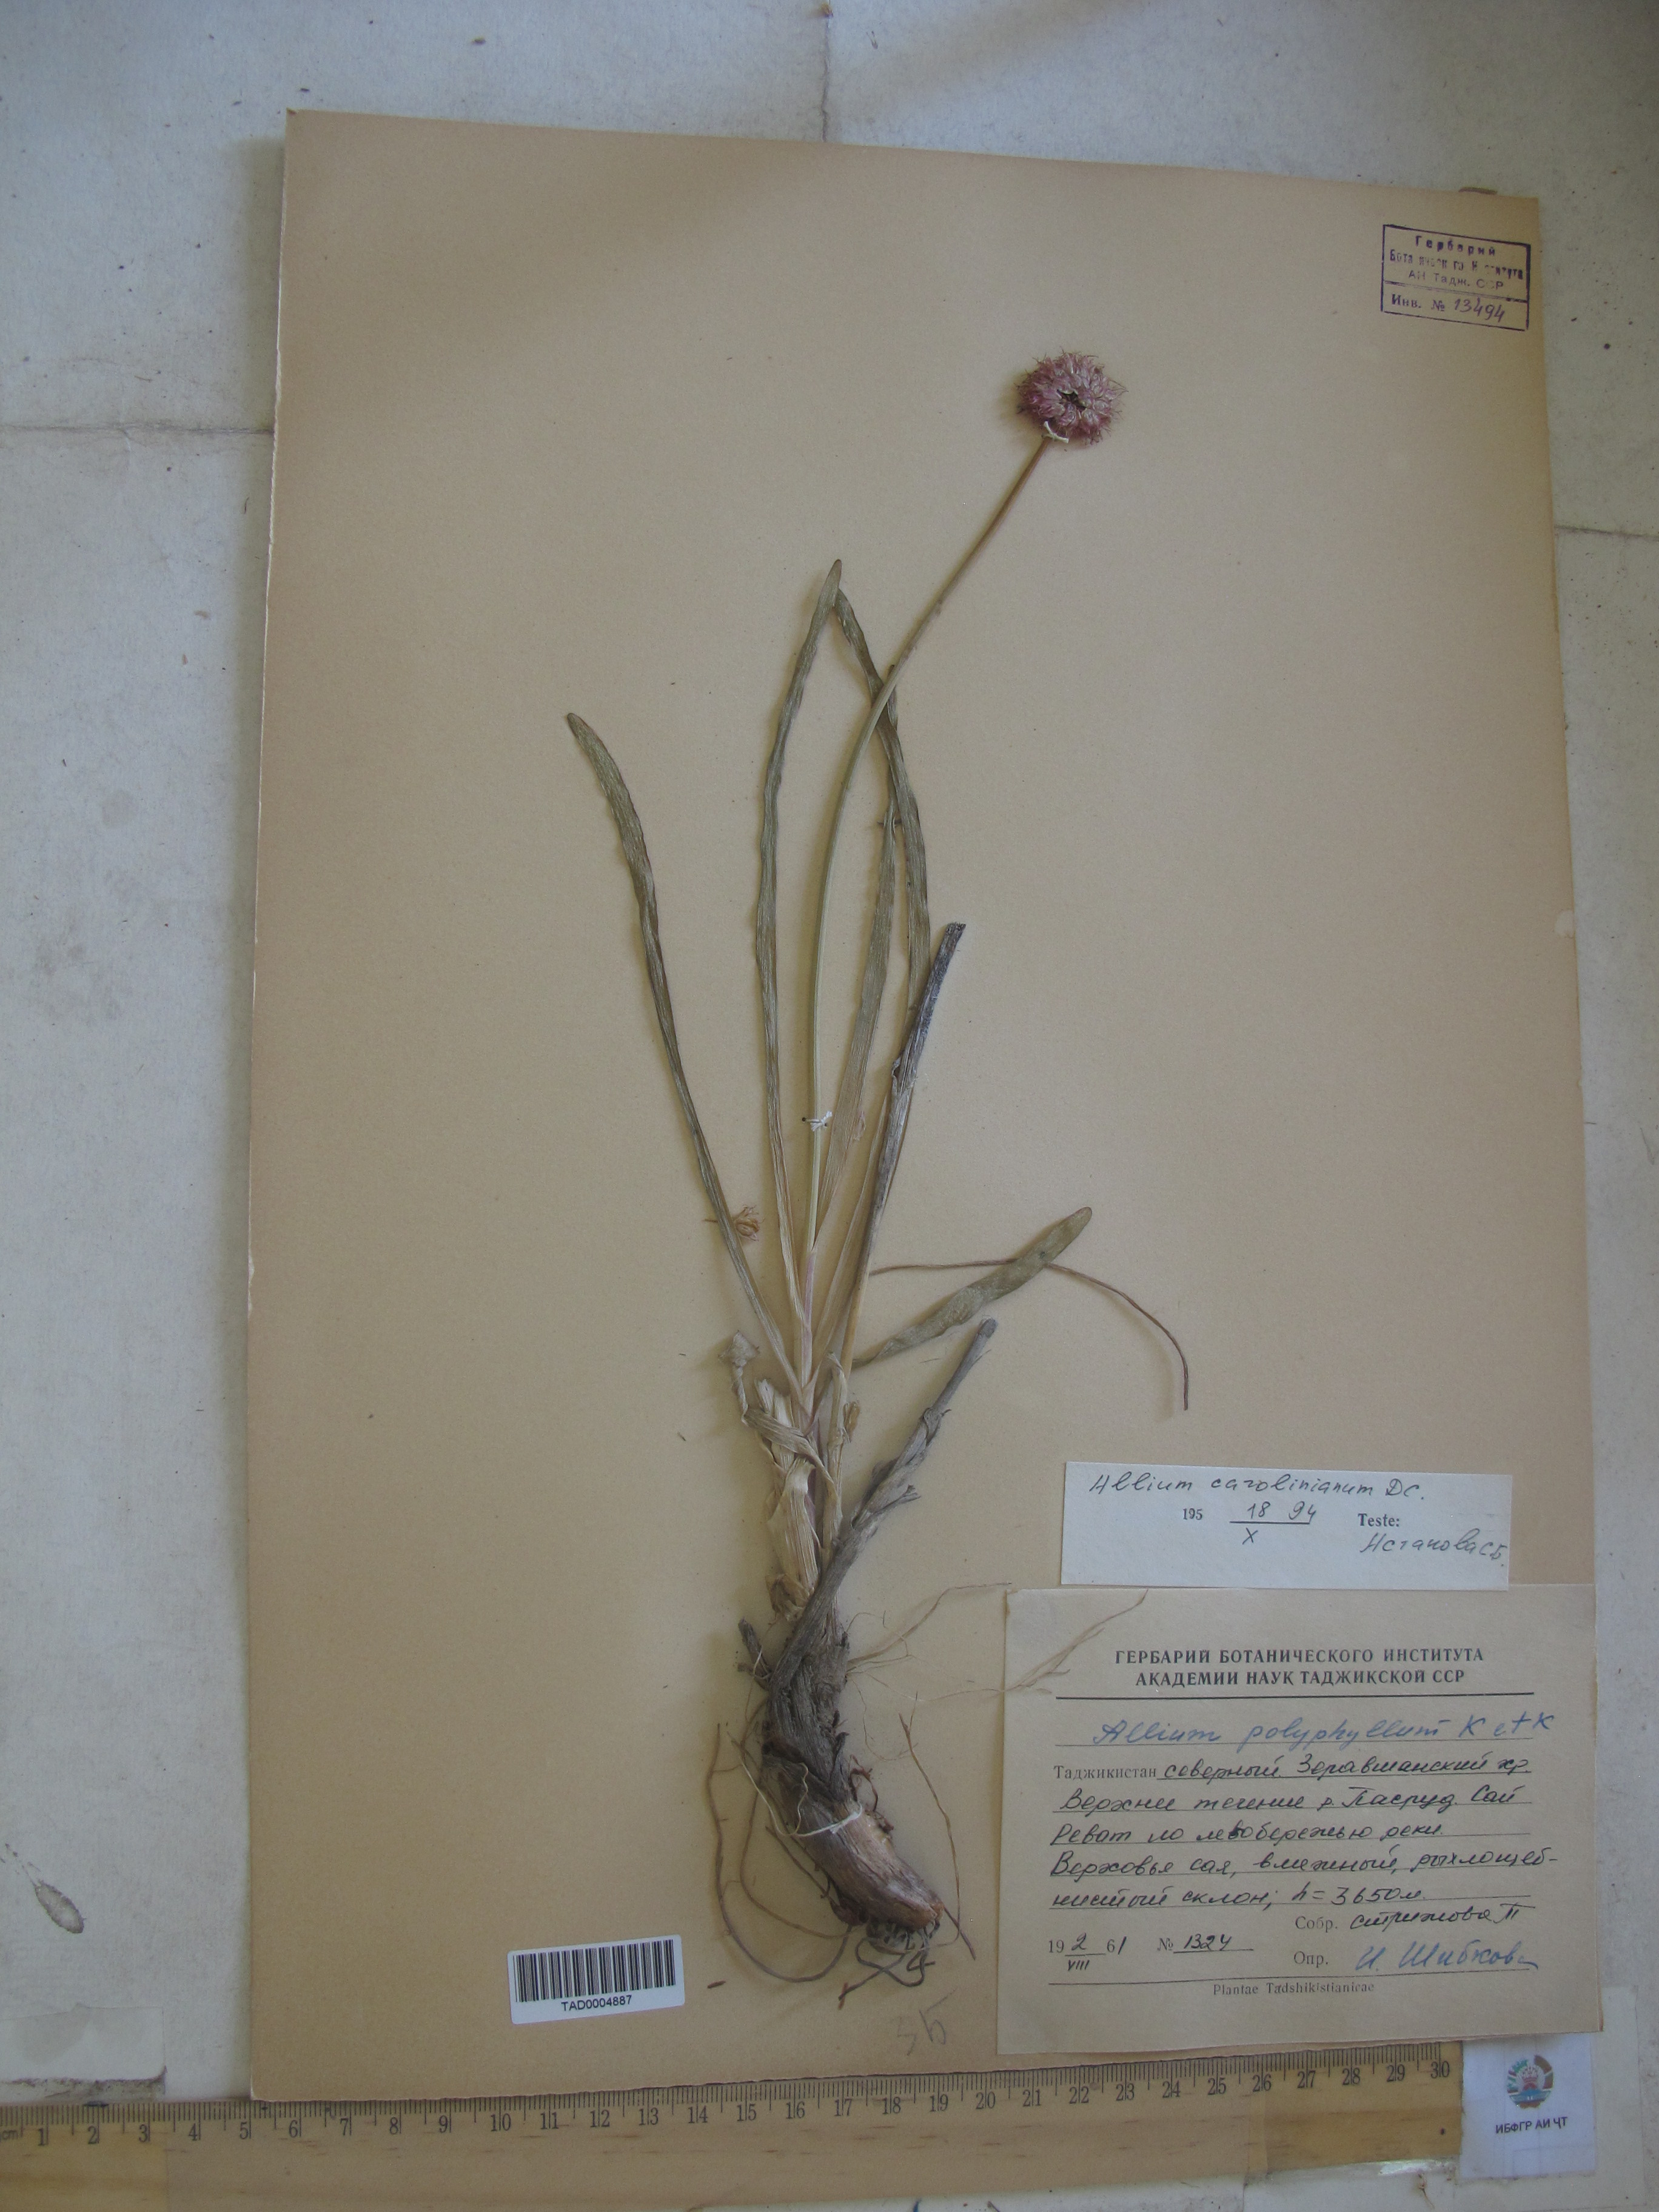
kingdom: Plantae
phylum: Tracheophyta
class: Liliopsida
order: Asparagales
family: Amaryllidaceae
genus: Allium
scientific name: Allium carolinianum
